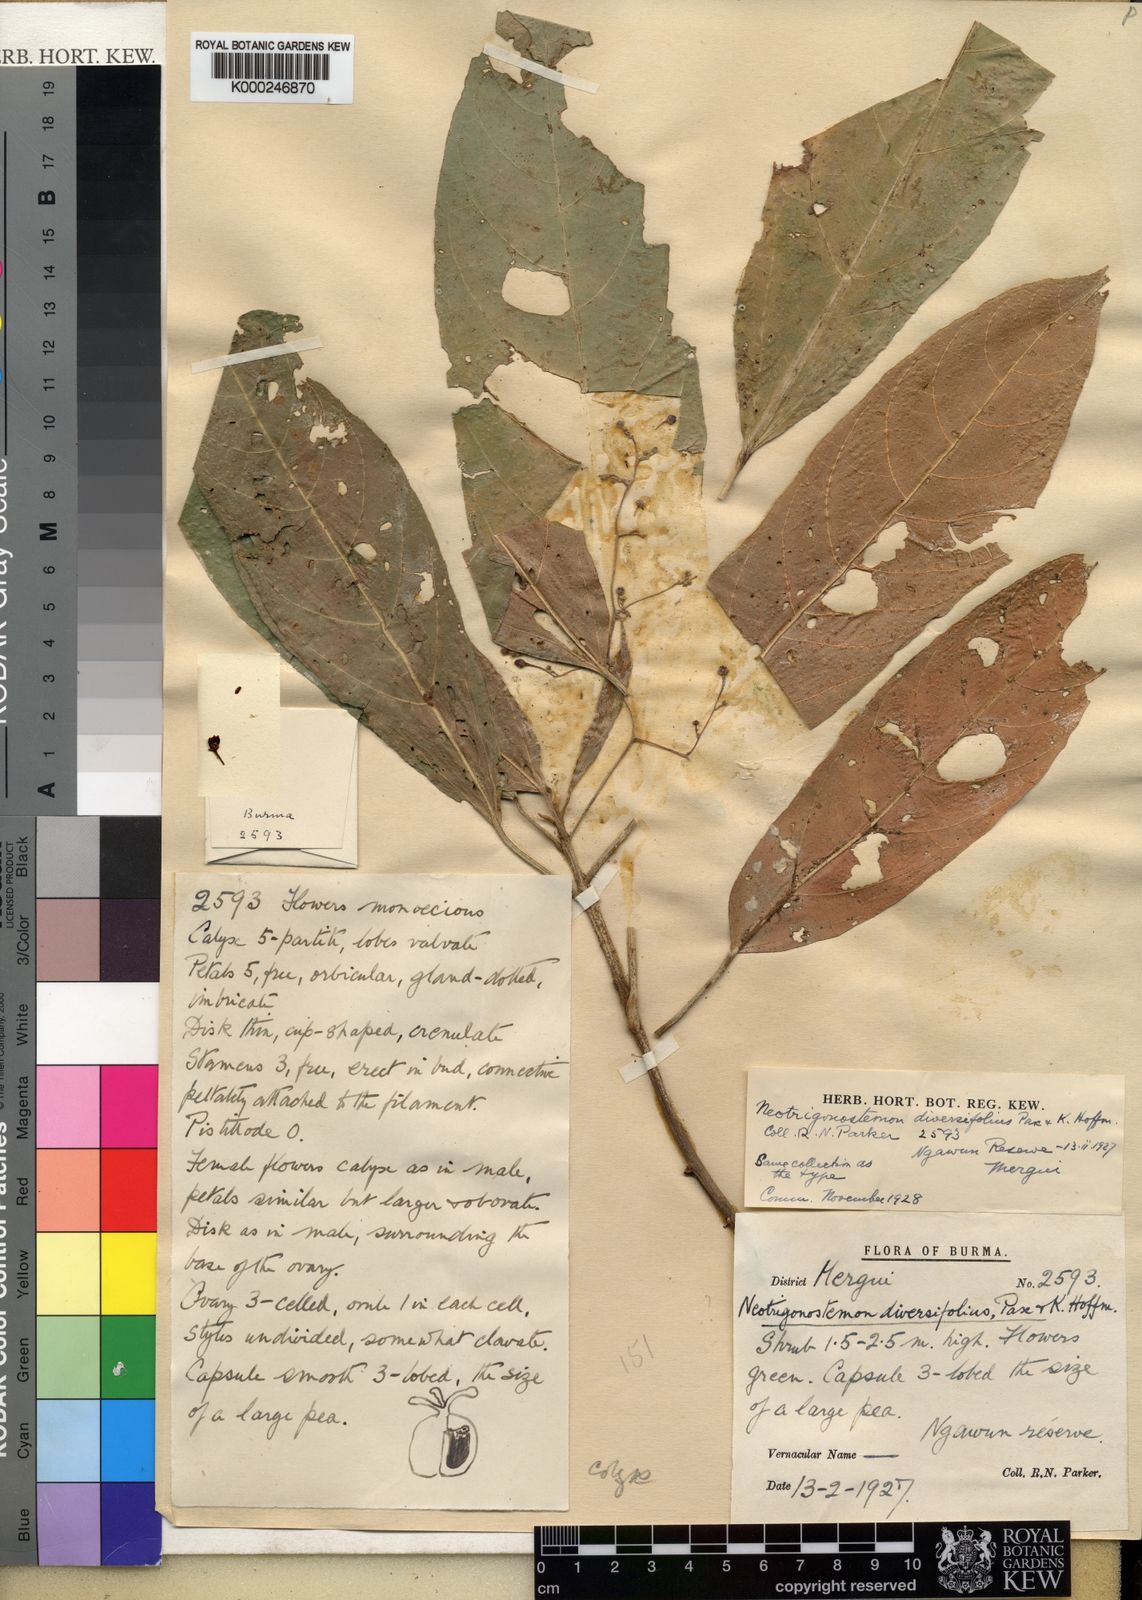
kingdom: Plantae
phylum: Tracheophyta
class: Magnoliopsida
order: Malpighiales
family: Euphorbiaceae
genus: Trigonostemon
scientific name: Trigonostemon viridissimus
